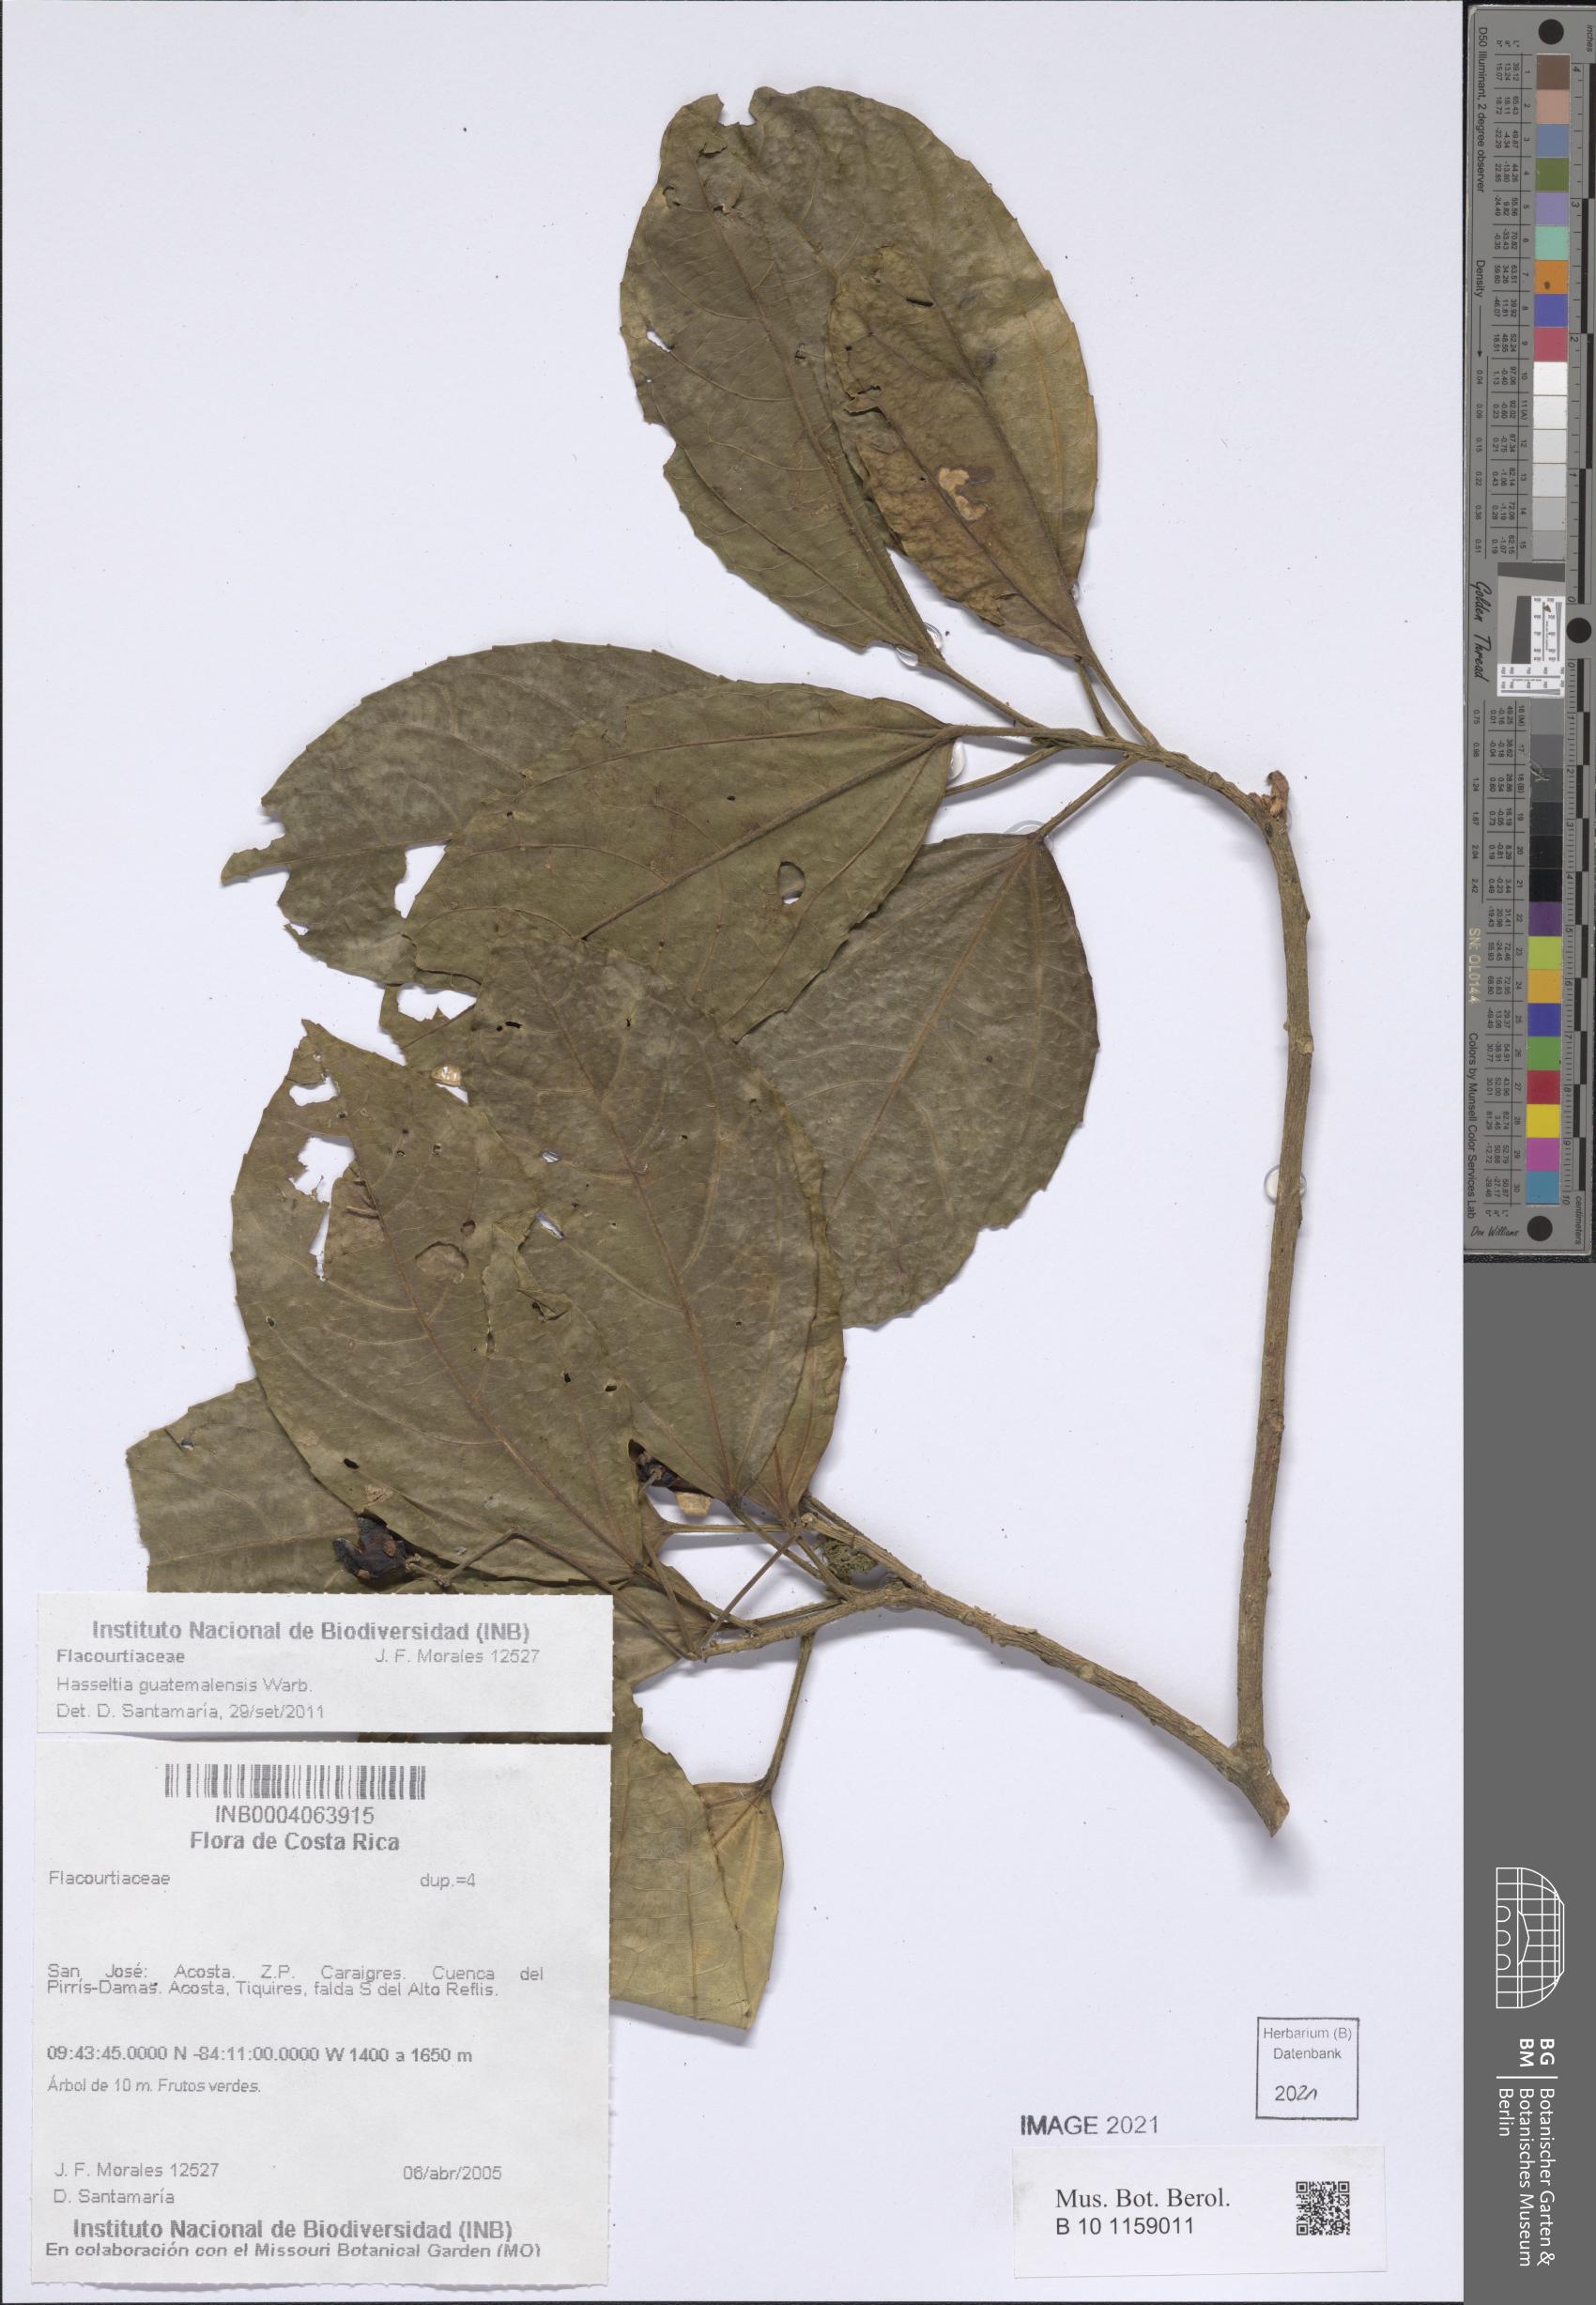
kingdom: Plantae
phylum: Tracheophyta
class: Magnoliopsida
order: Malpighiales
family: Salicaceae
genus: Hasseltia
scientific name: Hasseltia guatemalensis
